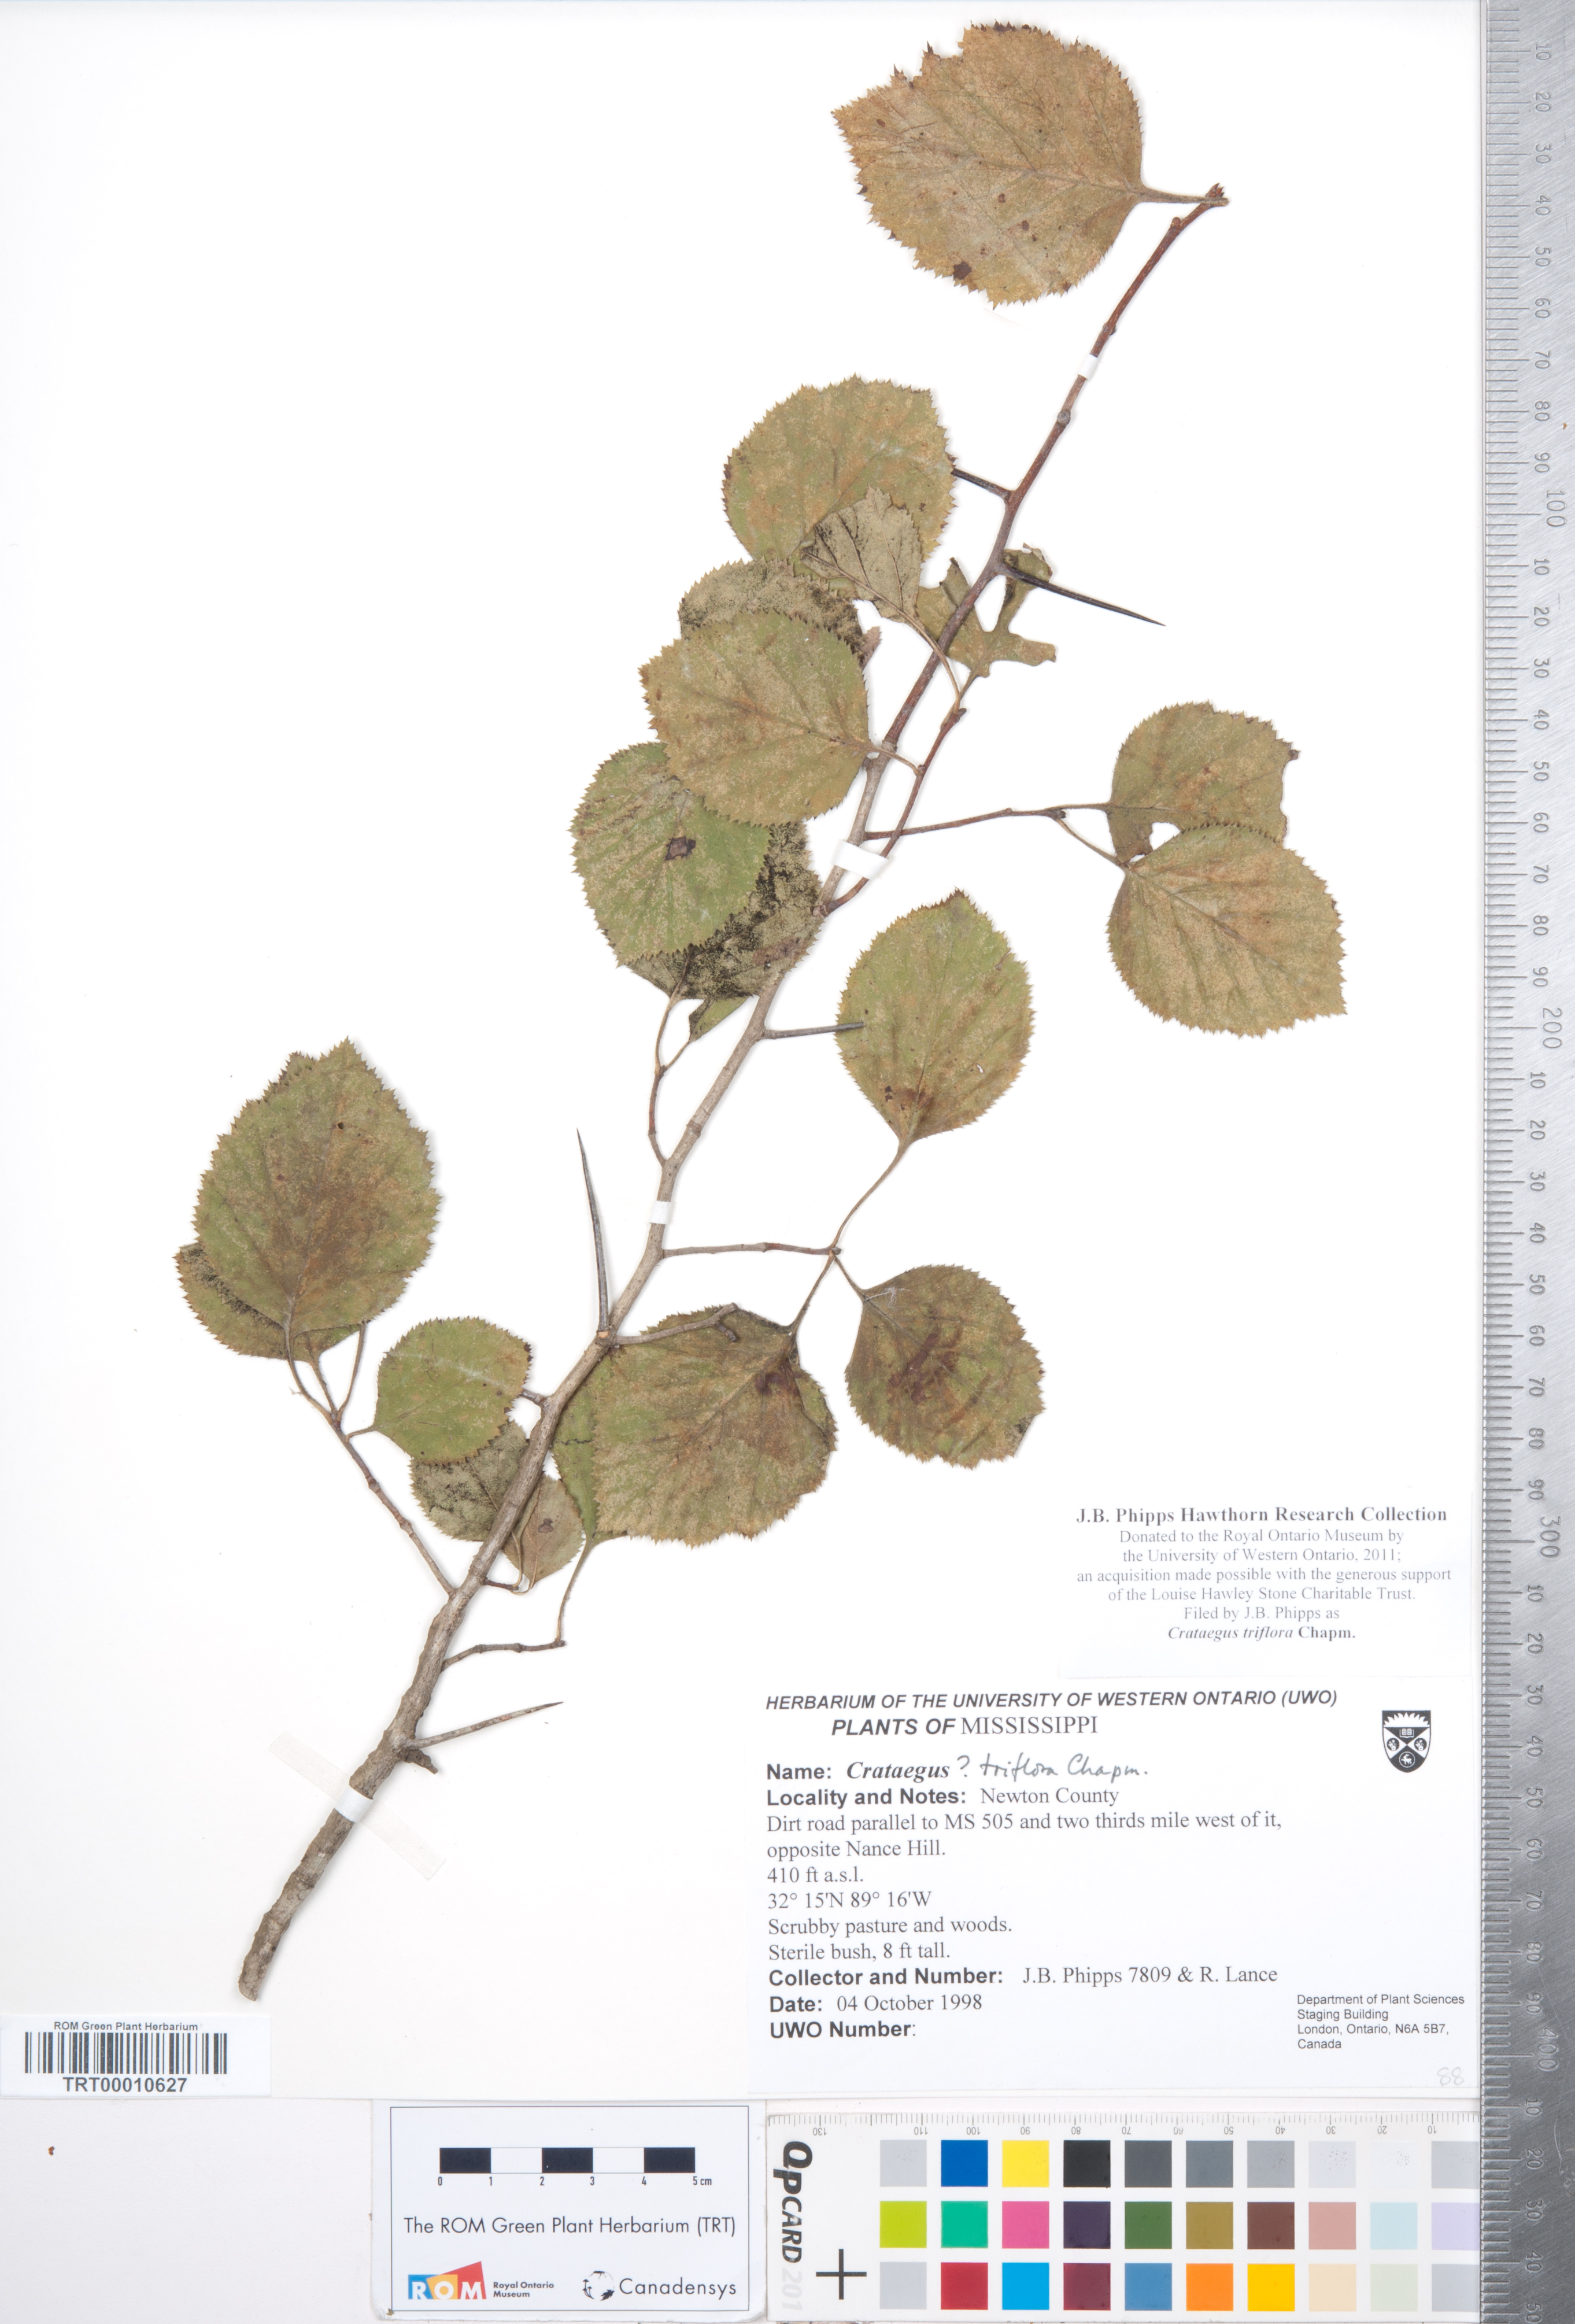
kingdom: Plantae
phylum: Tracheophyta
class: Magnoliopsida
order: Rosales
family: Rosaceae
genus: Crataegus
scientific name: Crataegus triflora
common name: Three-flower hawthorn
